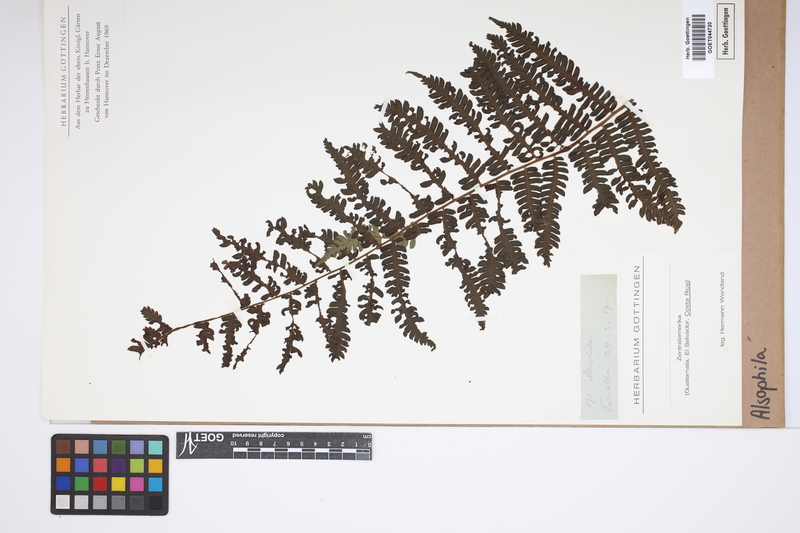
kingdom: Plantae
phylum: Tracheophyta
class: Polypodiopsida
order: Cyatheales
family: Cyatheaceae
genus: Alsophila
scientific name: Alsophila
